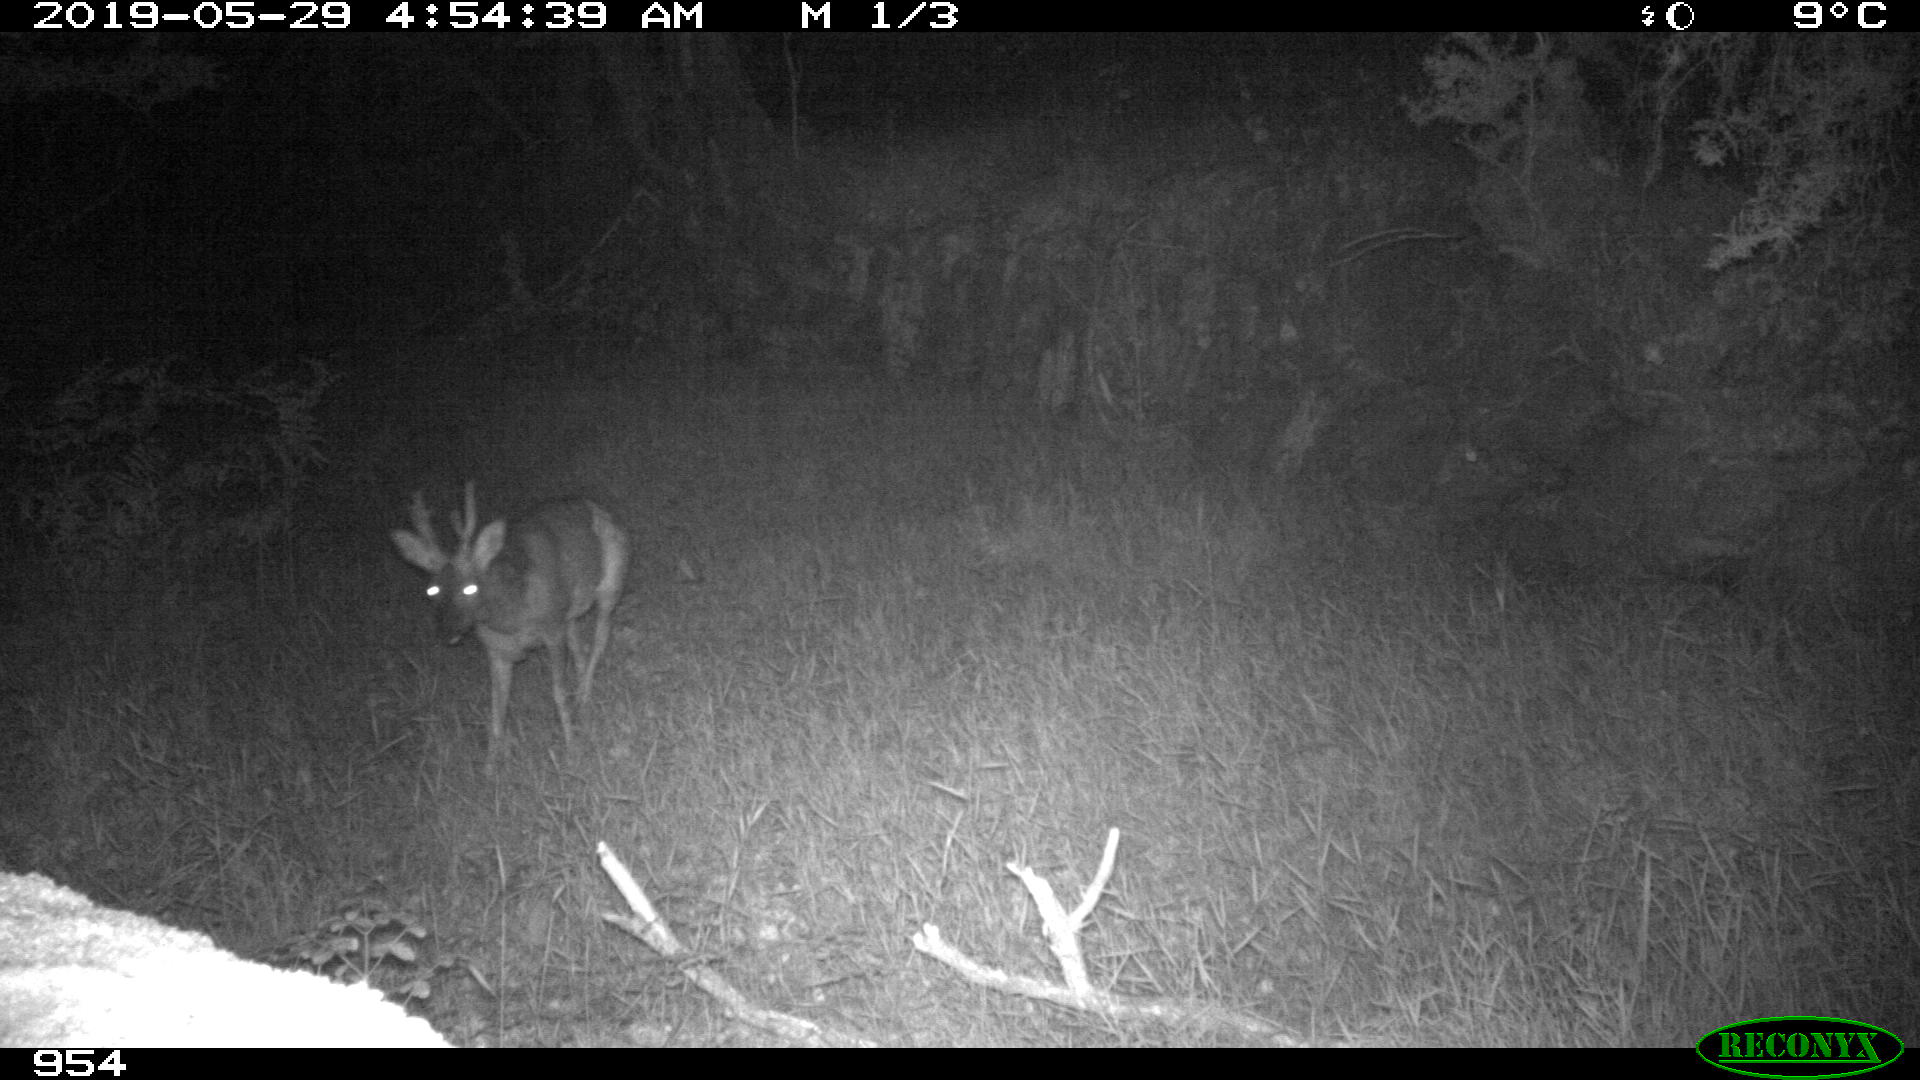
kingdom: Animalia
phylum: Chordata
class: Mammalia
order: Artiodactyla
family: Cervidae
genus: Capreolus
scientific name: Capreolus capreolus
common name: Western roe deer
